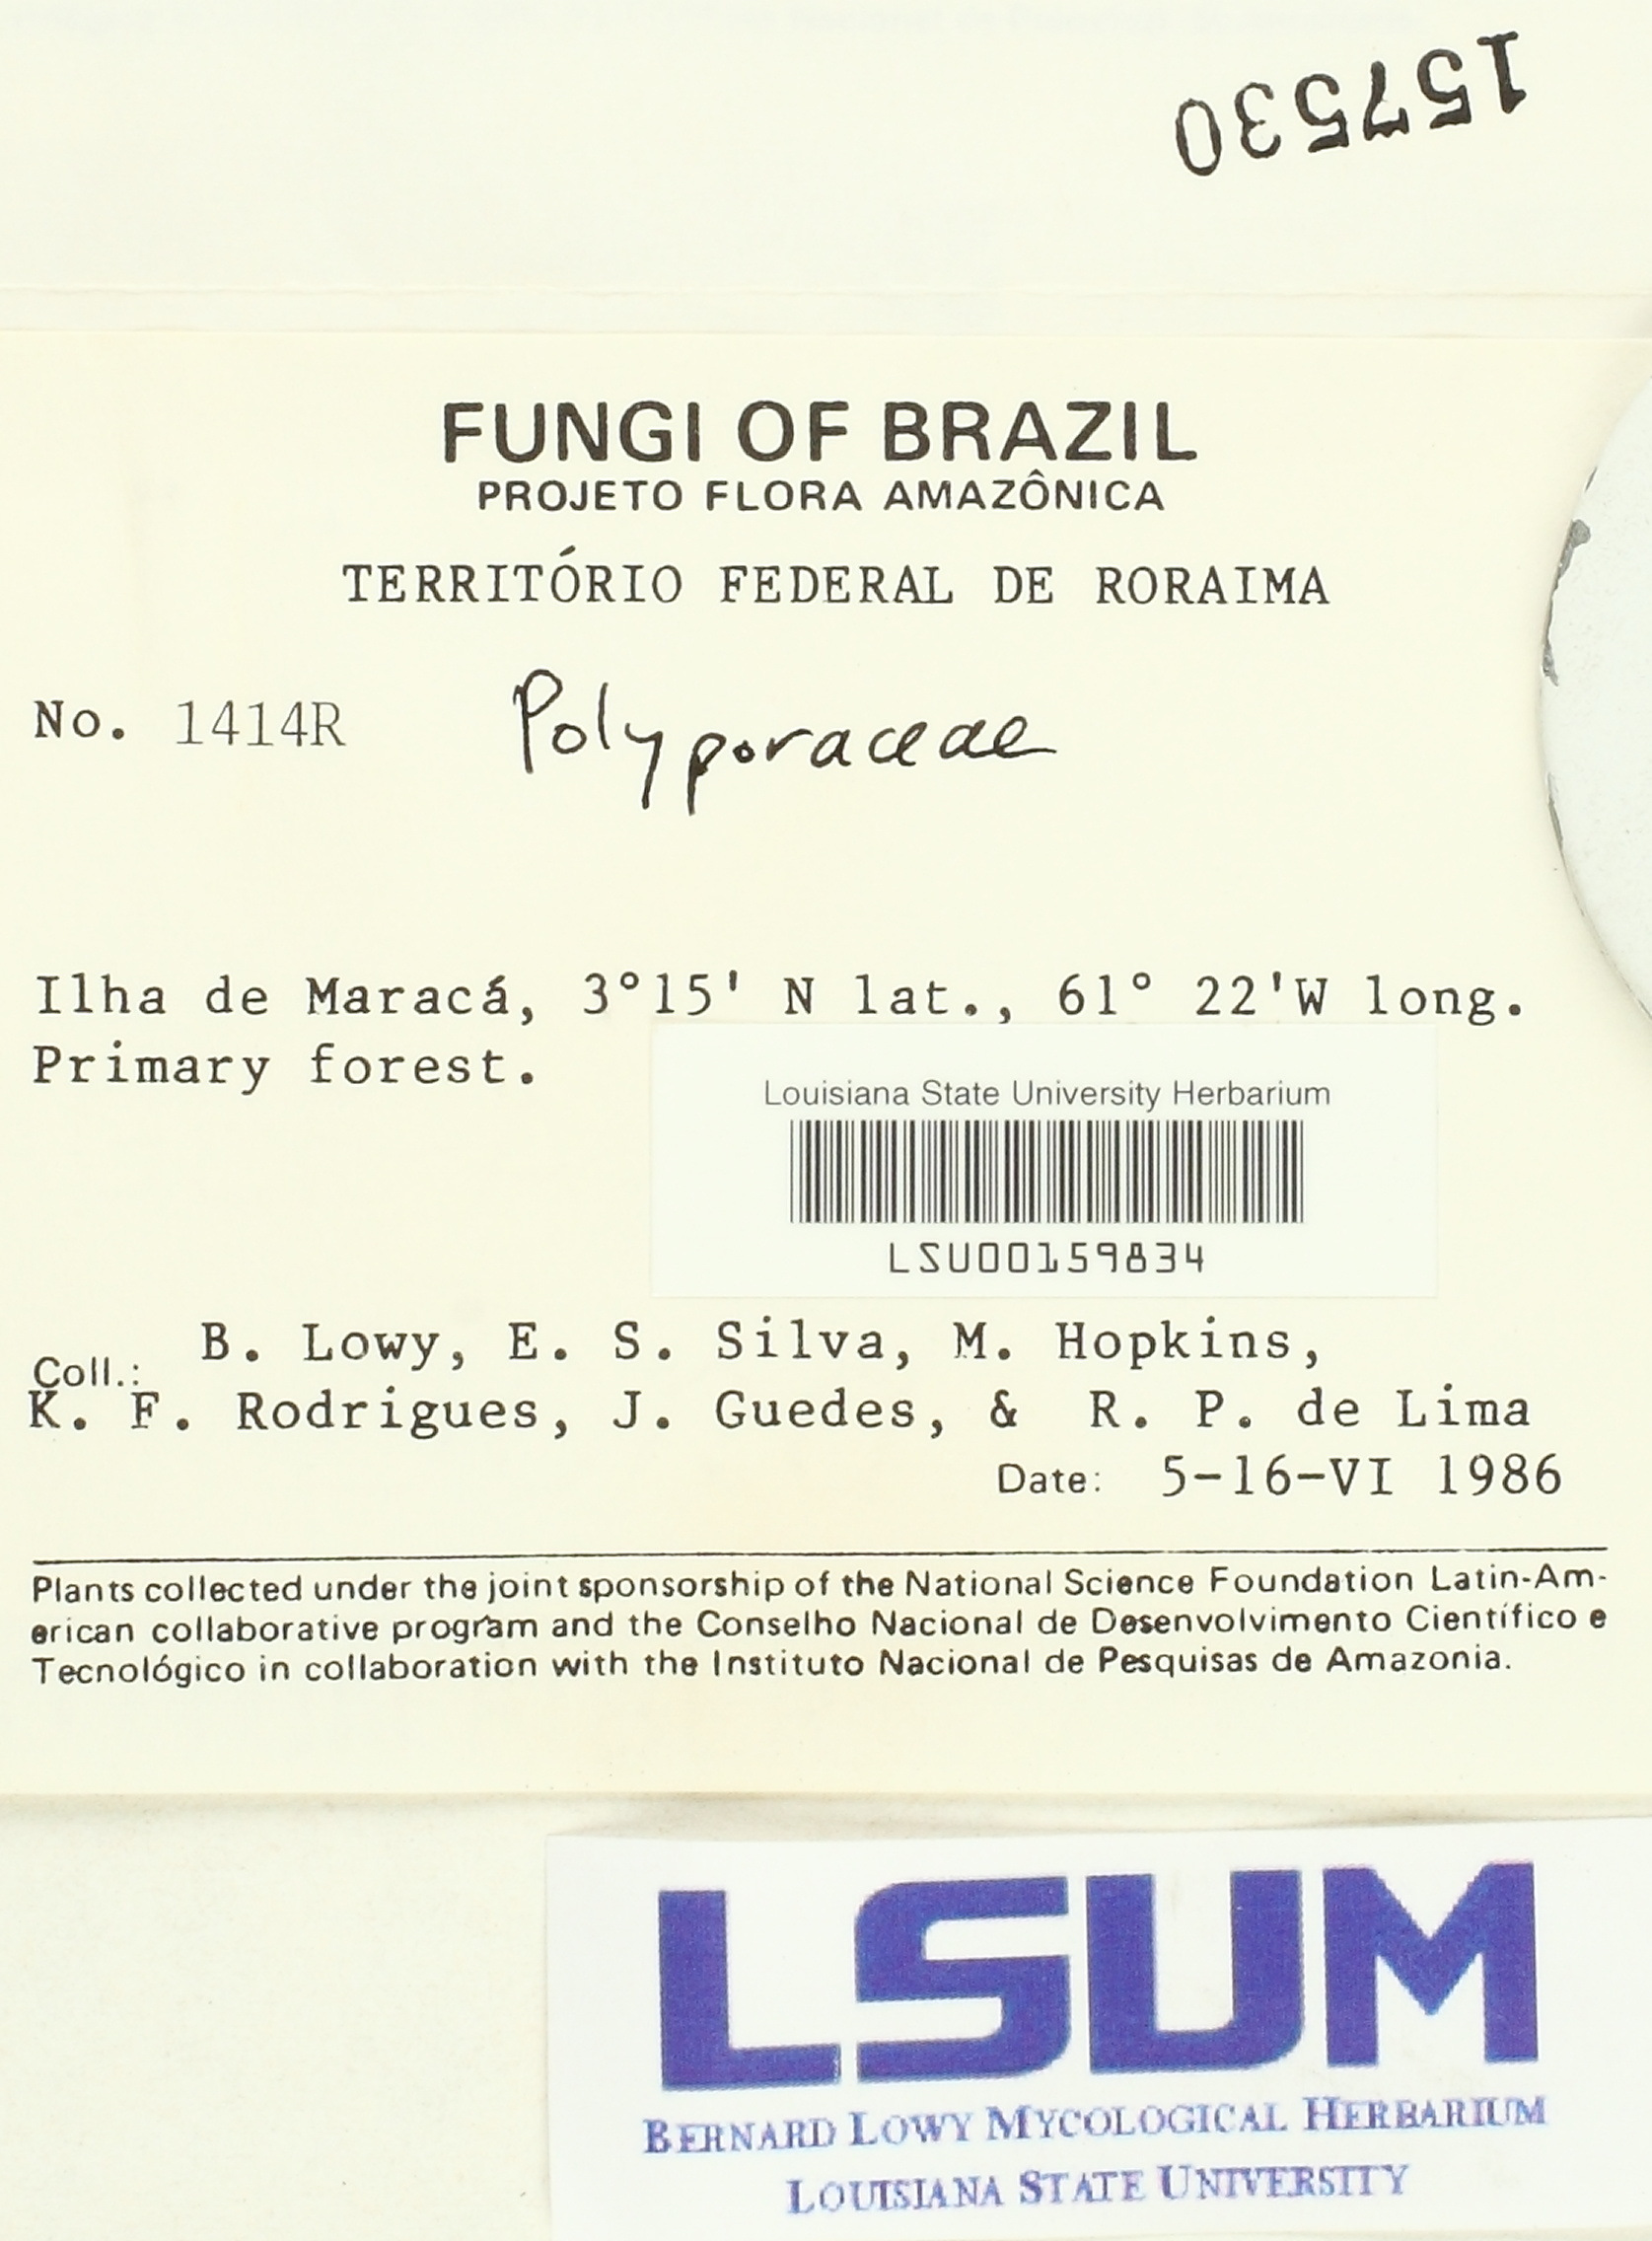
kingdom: Fungi
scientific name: Fungi
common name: Fungi
